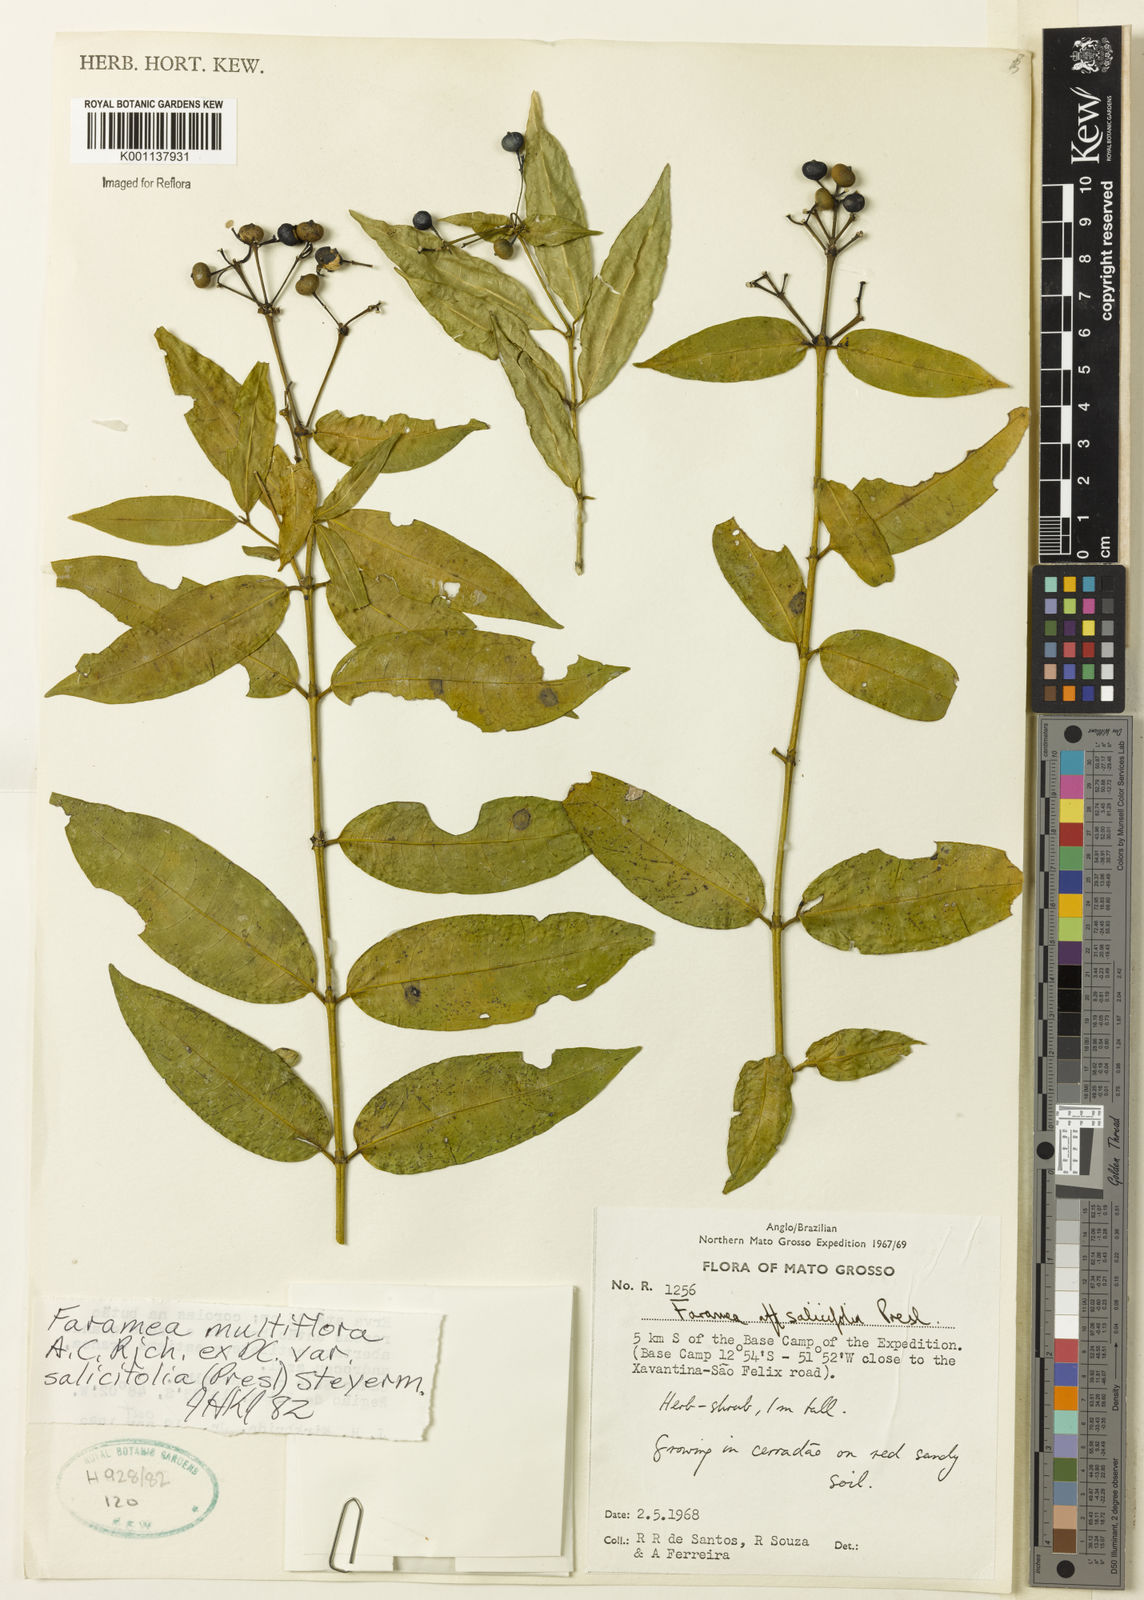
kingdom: Plantae
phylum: Tracheophyta
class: Magnoliopsida
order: Gentianales
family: Rubiaceae
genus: Faramea
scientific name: Faramea multiflora
